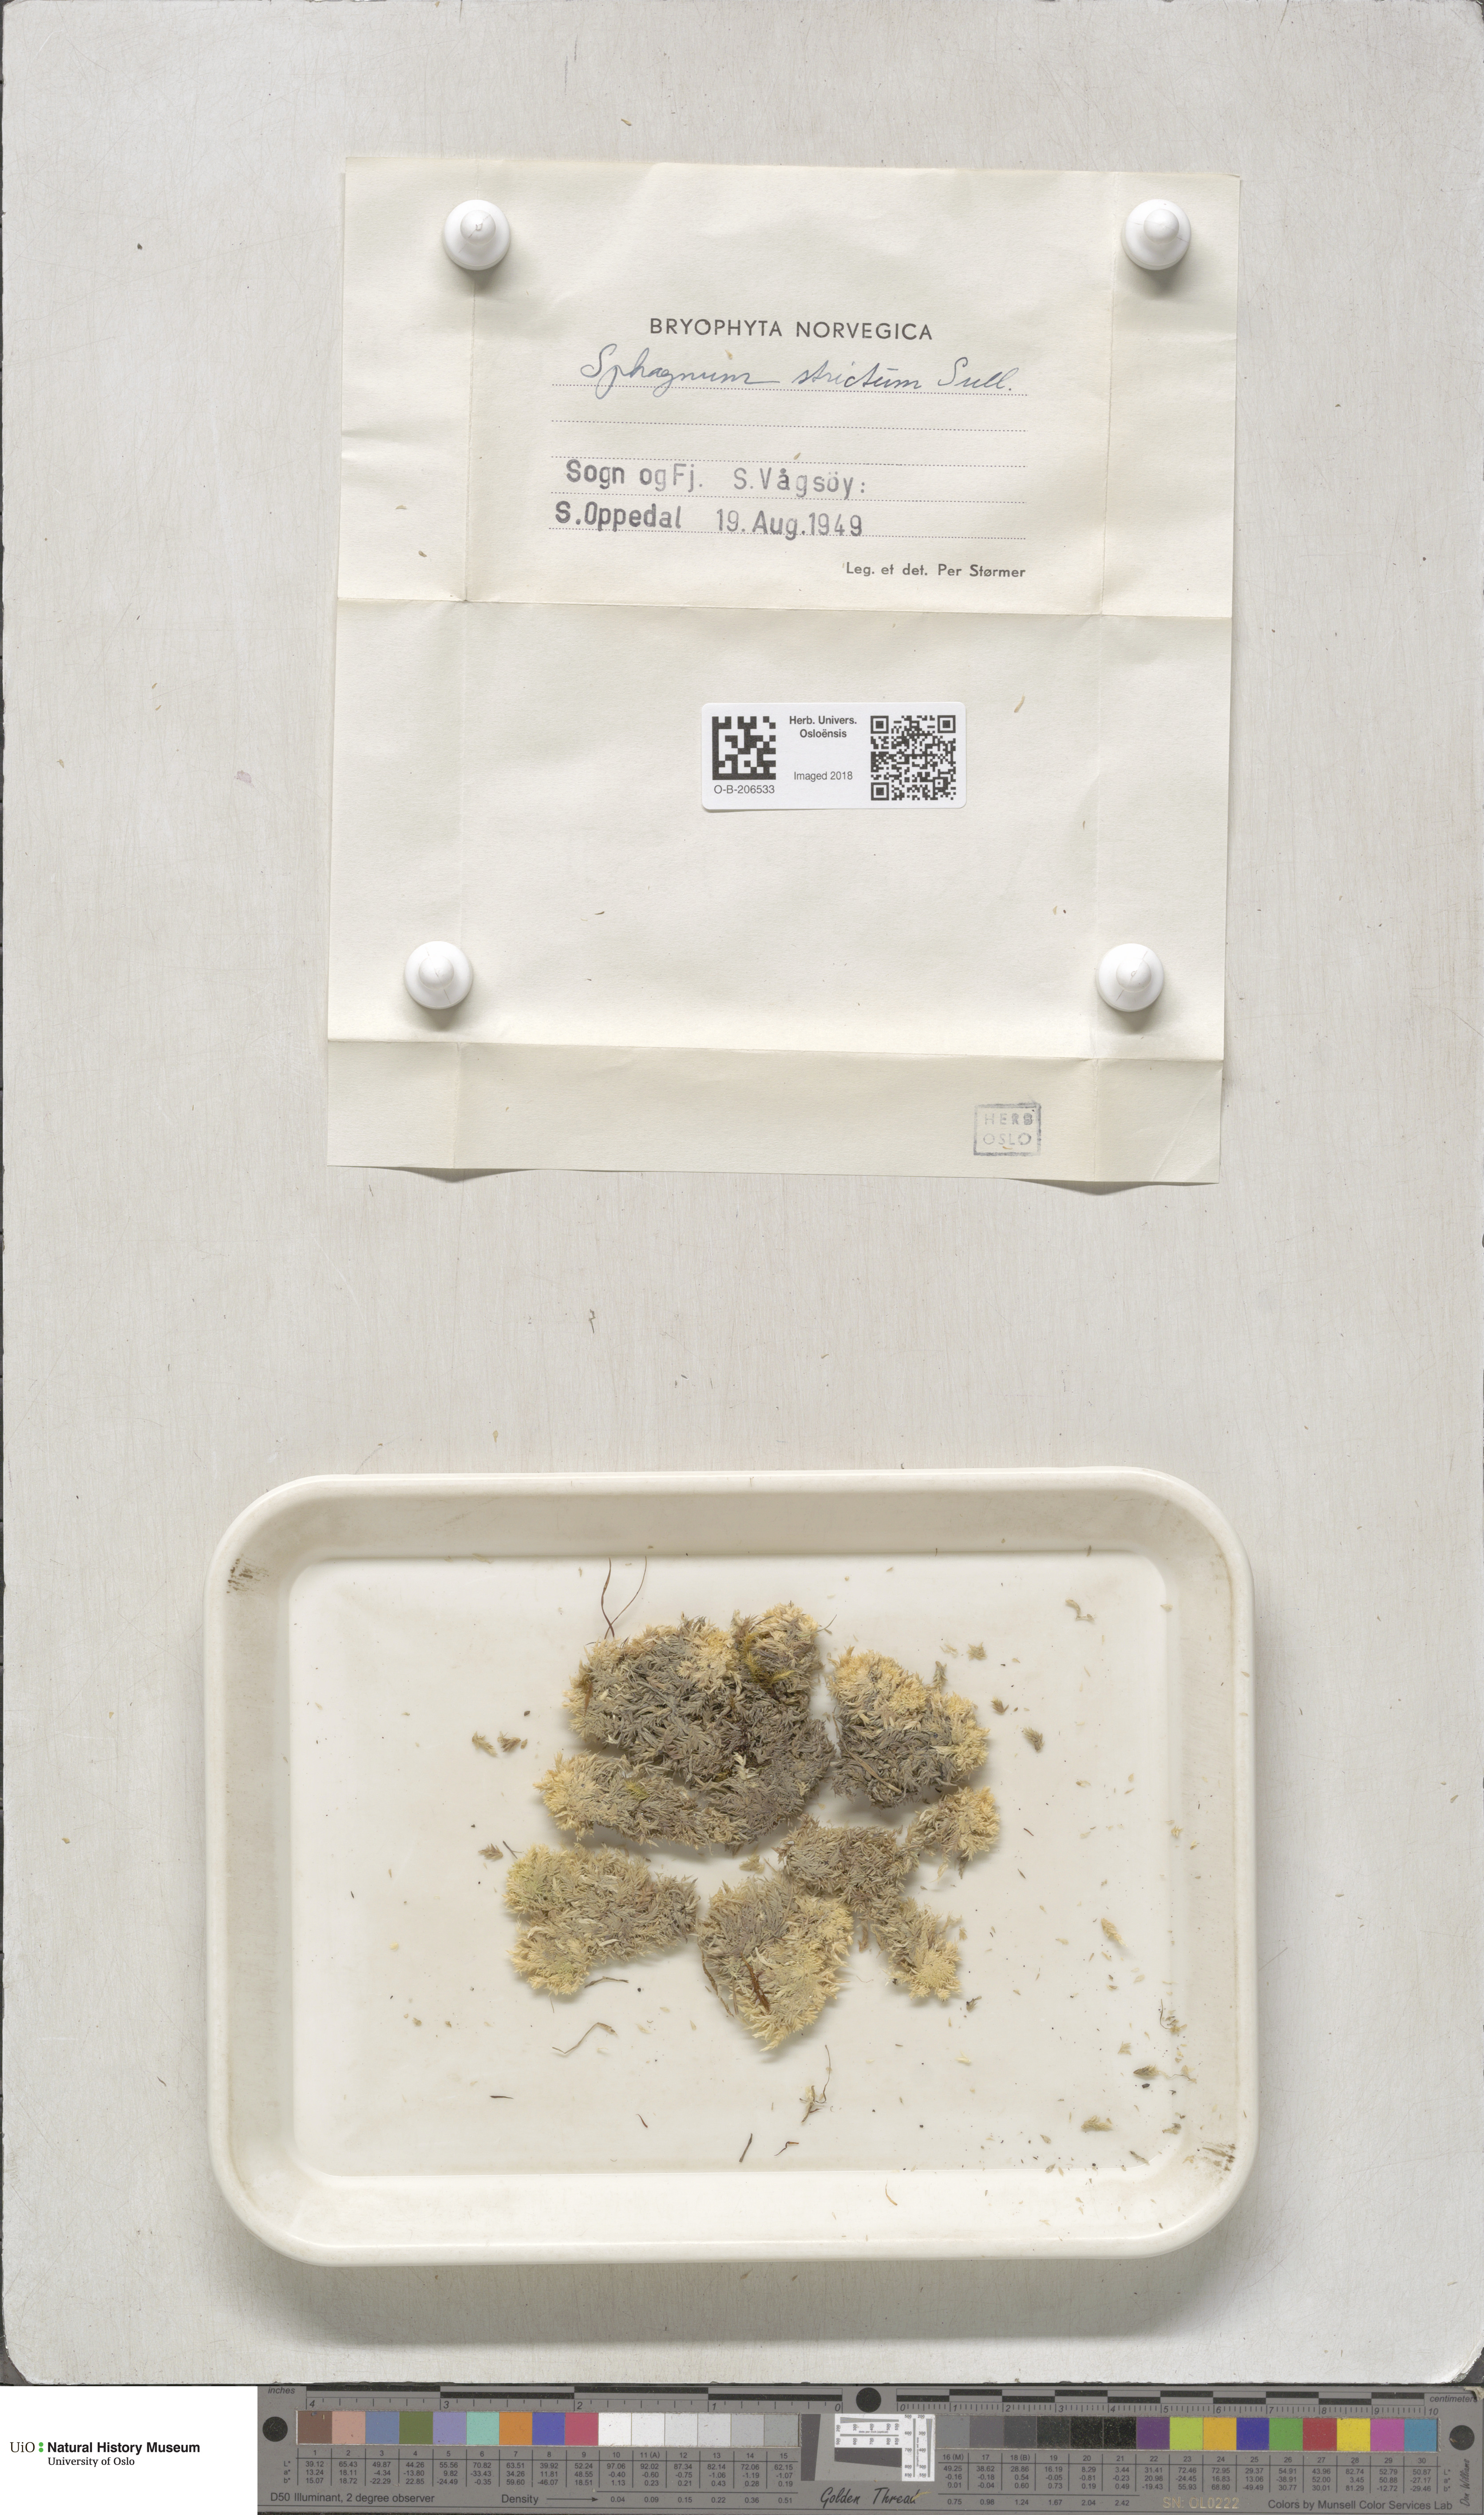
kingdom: Plantae
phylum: Bryophyta
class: Sphagnopsida
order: Sphagnales
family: Sphagnaceae
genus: Sphagnum
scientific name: Sphagnum strictum
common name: Pale bog-moss
